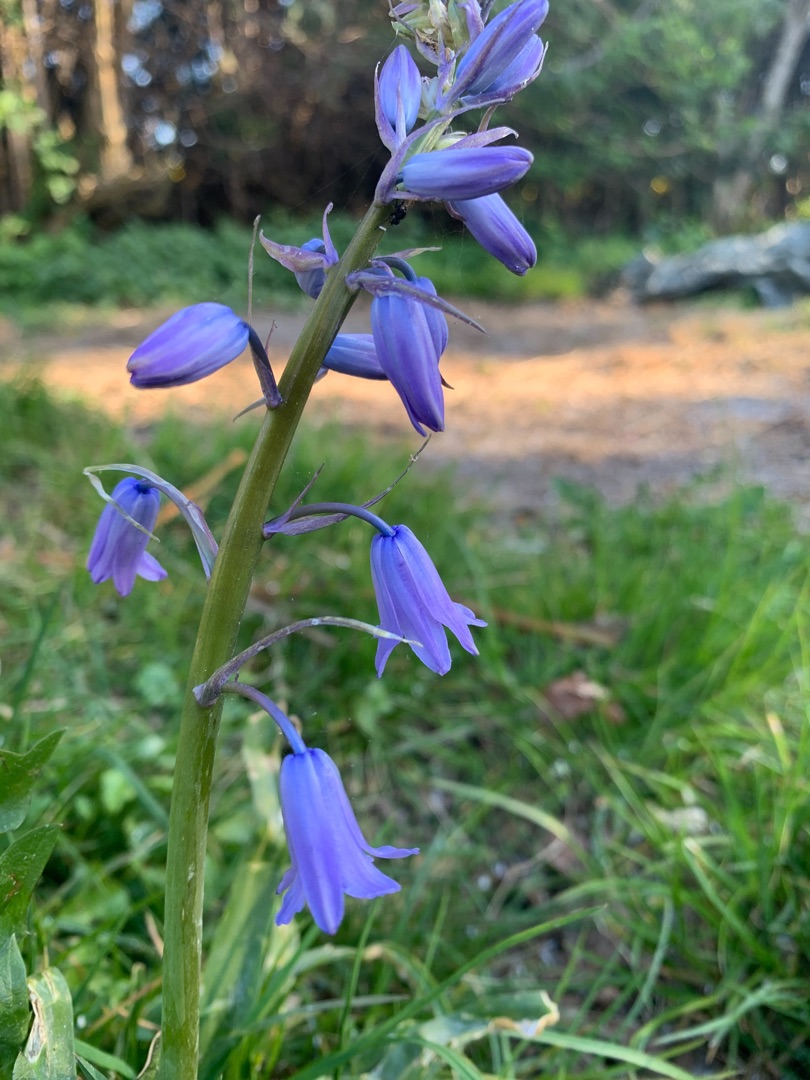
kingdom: Plantae
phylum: Tracheophyta
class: Liliopsida
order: Asparagales
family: Asparagaceae
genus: Hyacinthoides
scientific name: Hyacinthoides massartiana
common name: Hybrid-klokkeskilla
